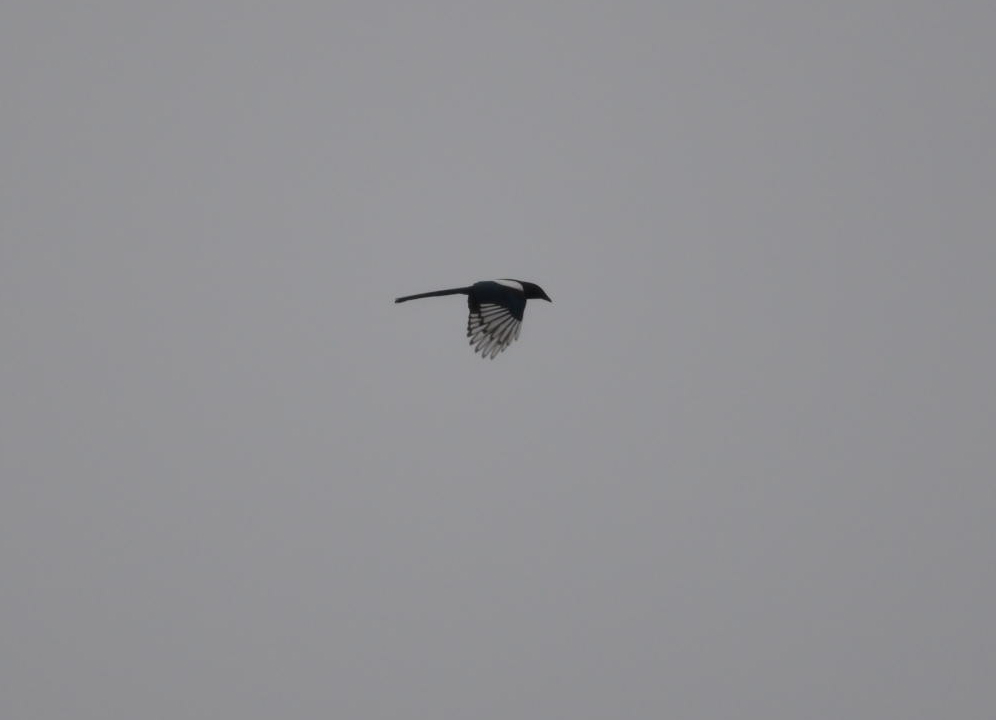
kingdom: Animalia
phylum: Chordata
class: Aves
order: Passeriformes
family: Corvidae
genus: Pica
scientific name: Pica pica
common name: Eurasian magpie
